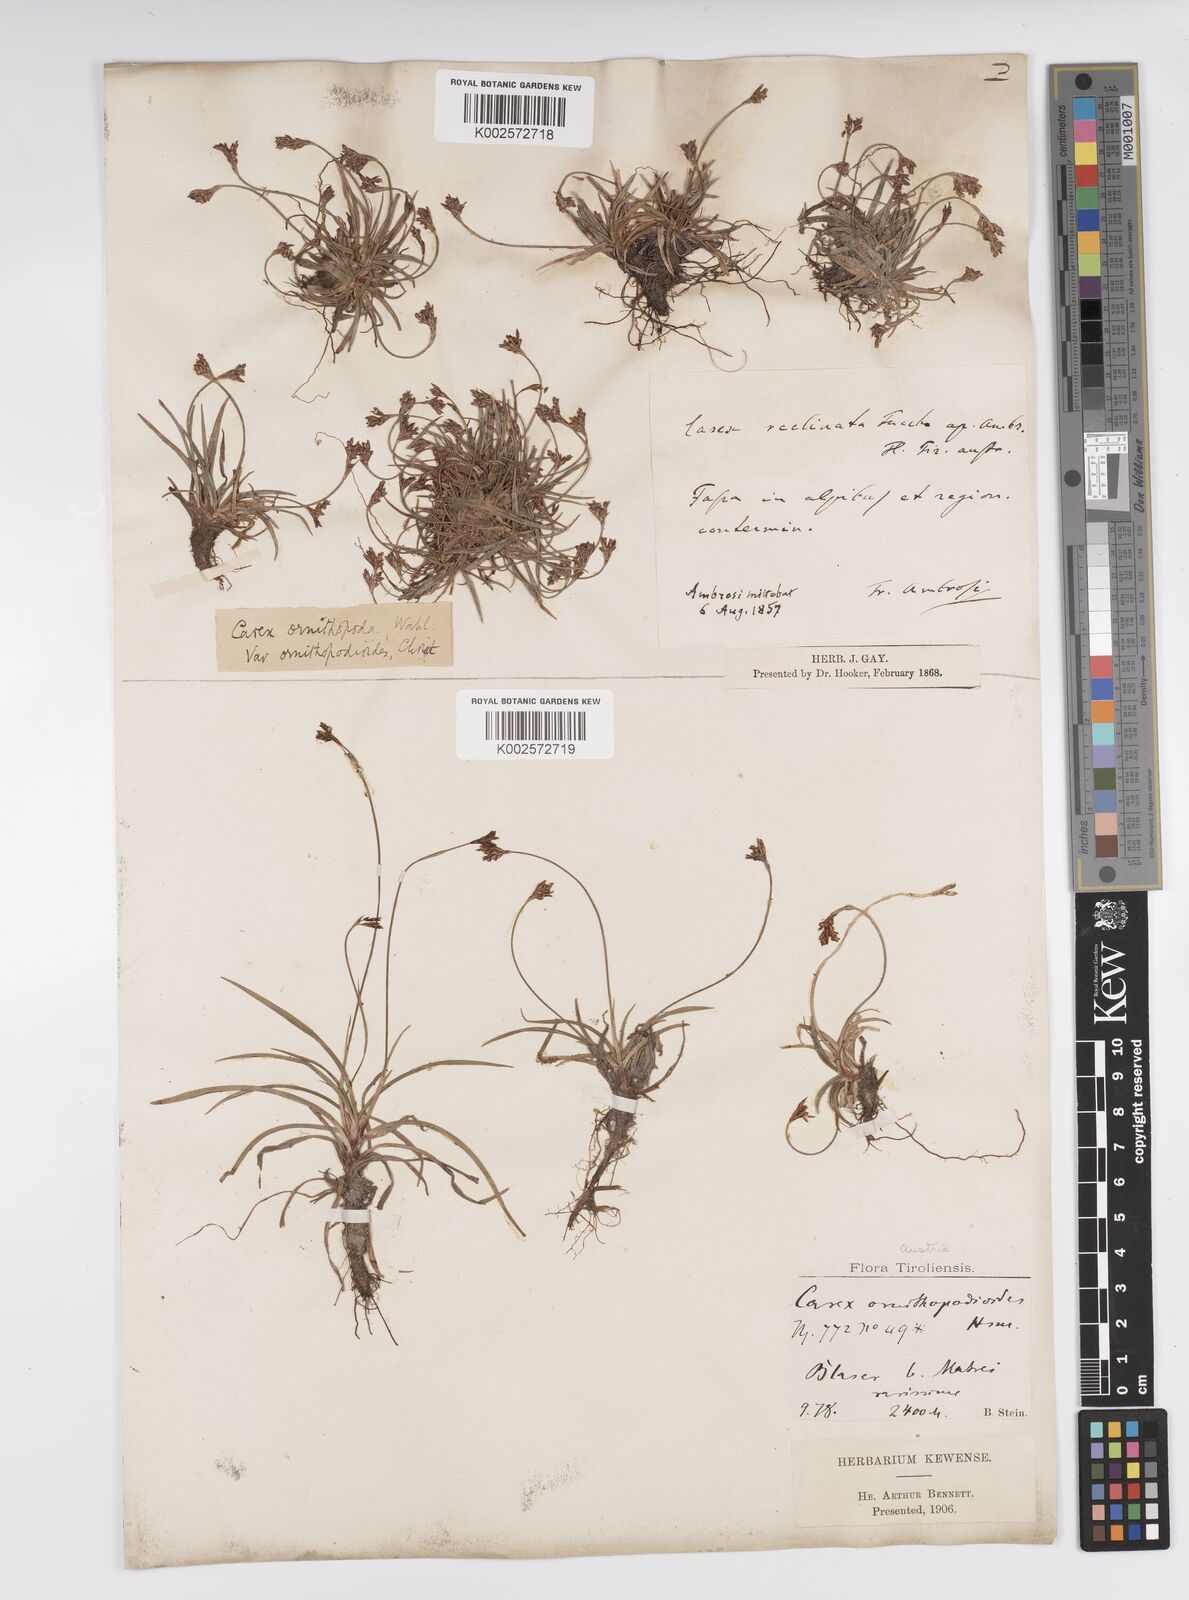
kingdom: Plantae
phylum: Tracheophyta
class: Liliopsida
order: Poales
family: Cyperaceae
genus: Carex
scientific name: Carex ornithopoda
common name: Bird's-foot sedge
